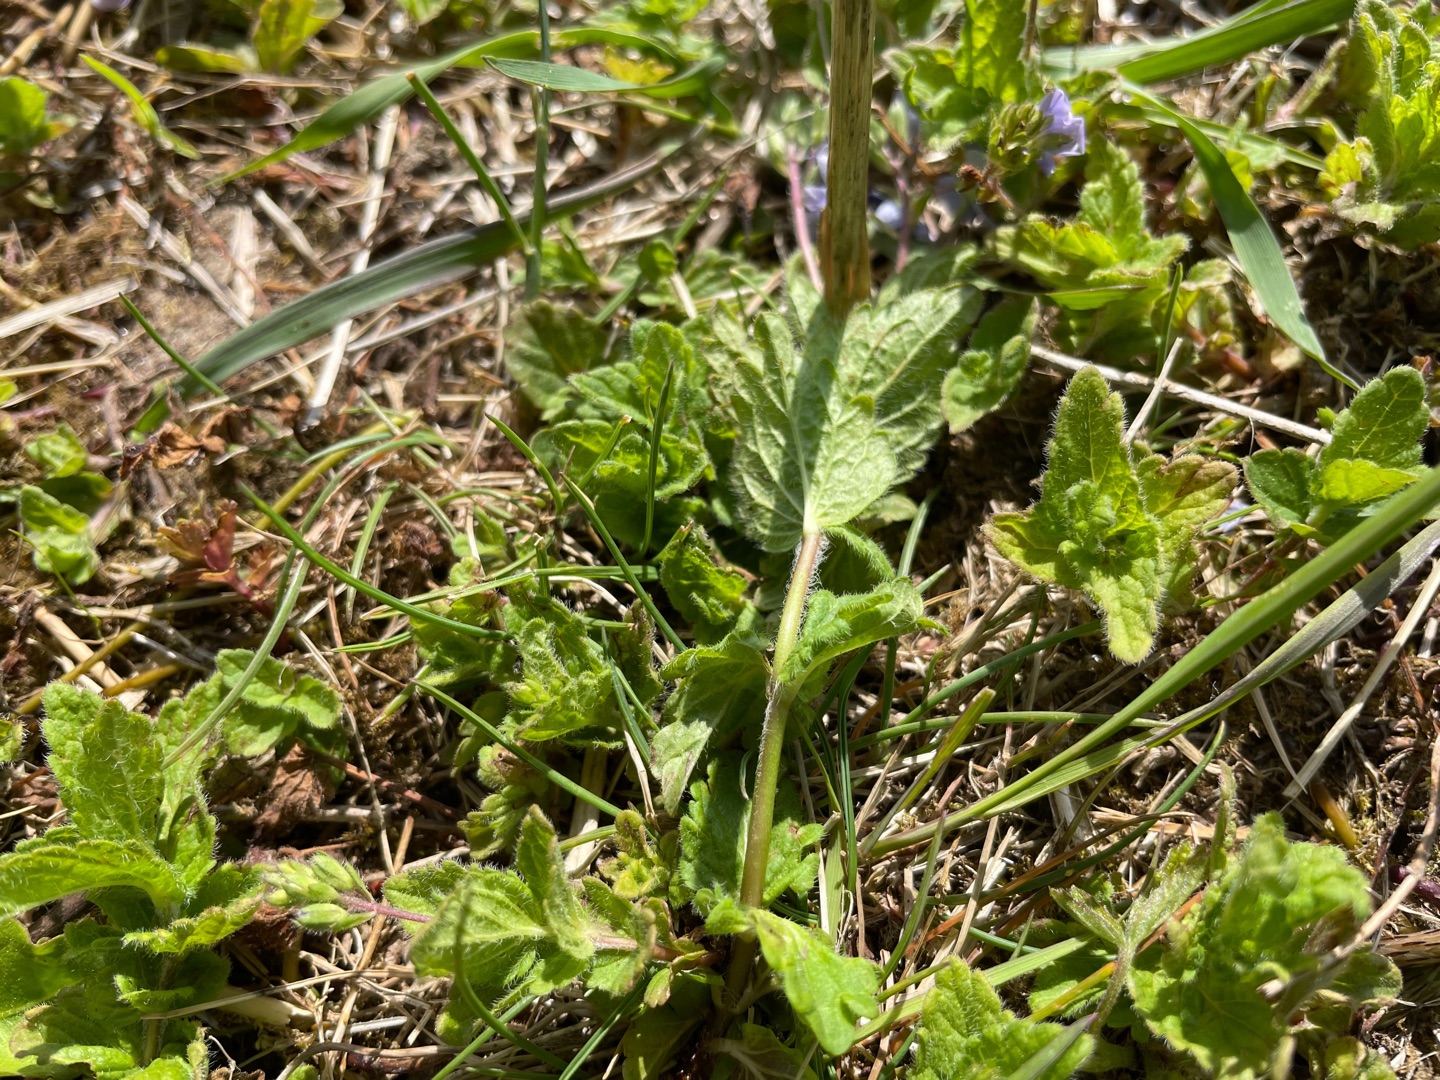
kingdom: Plantae
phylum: Tracheophyta
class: Magnoliopsida
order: Lamiales
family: Plantaginaceae
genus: Veronica
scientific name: Veronica chamaedrys
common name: Tveskægget ærenpris
